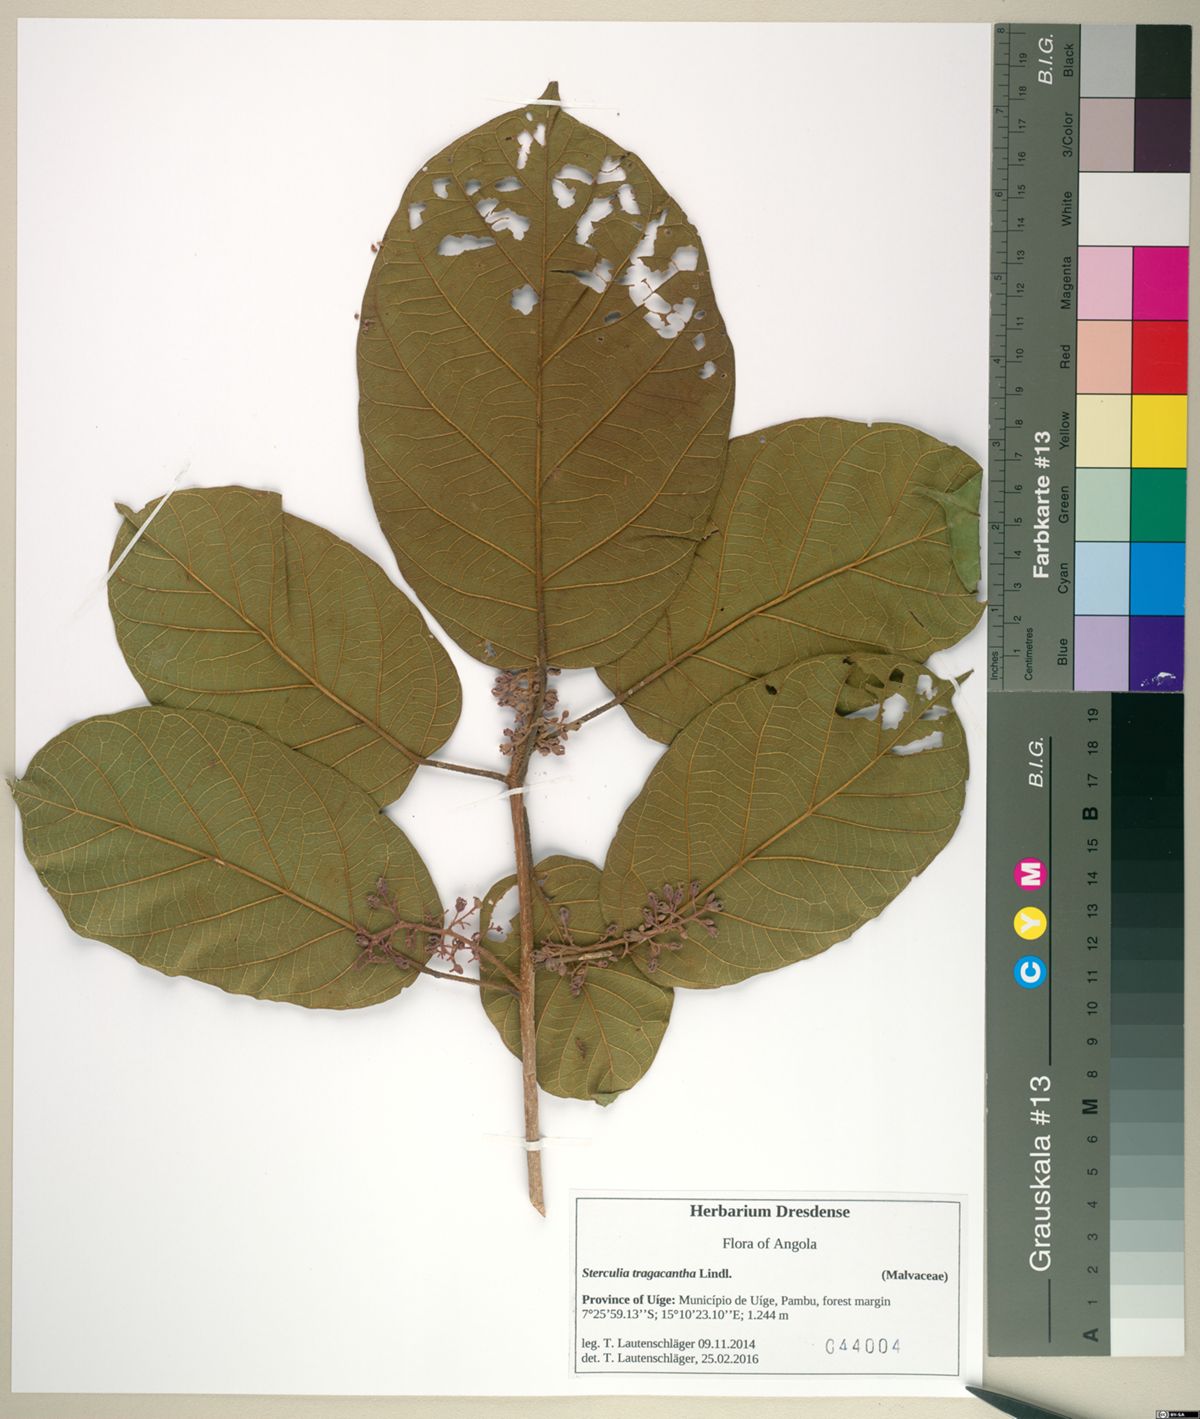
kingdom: Plantae
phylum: Tracheophyta
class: Magnoliopsida
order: Malvales
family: Malvaceae
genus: Sterculia
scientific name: Sterculia tragacantha
